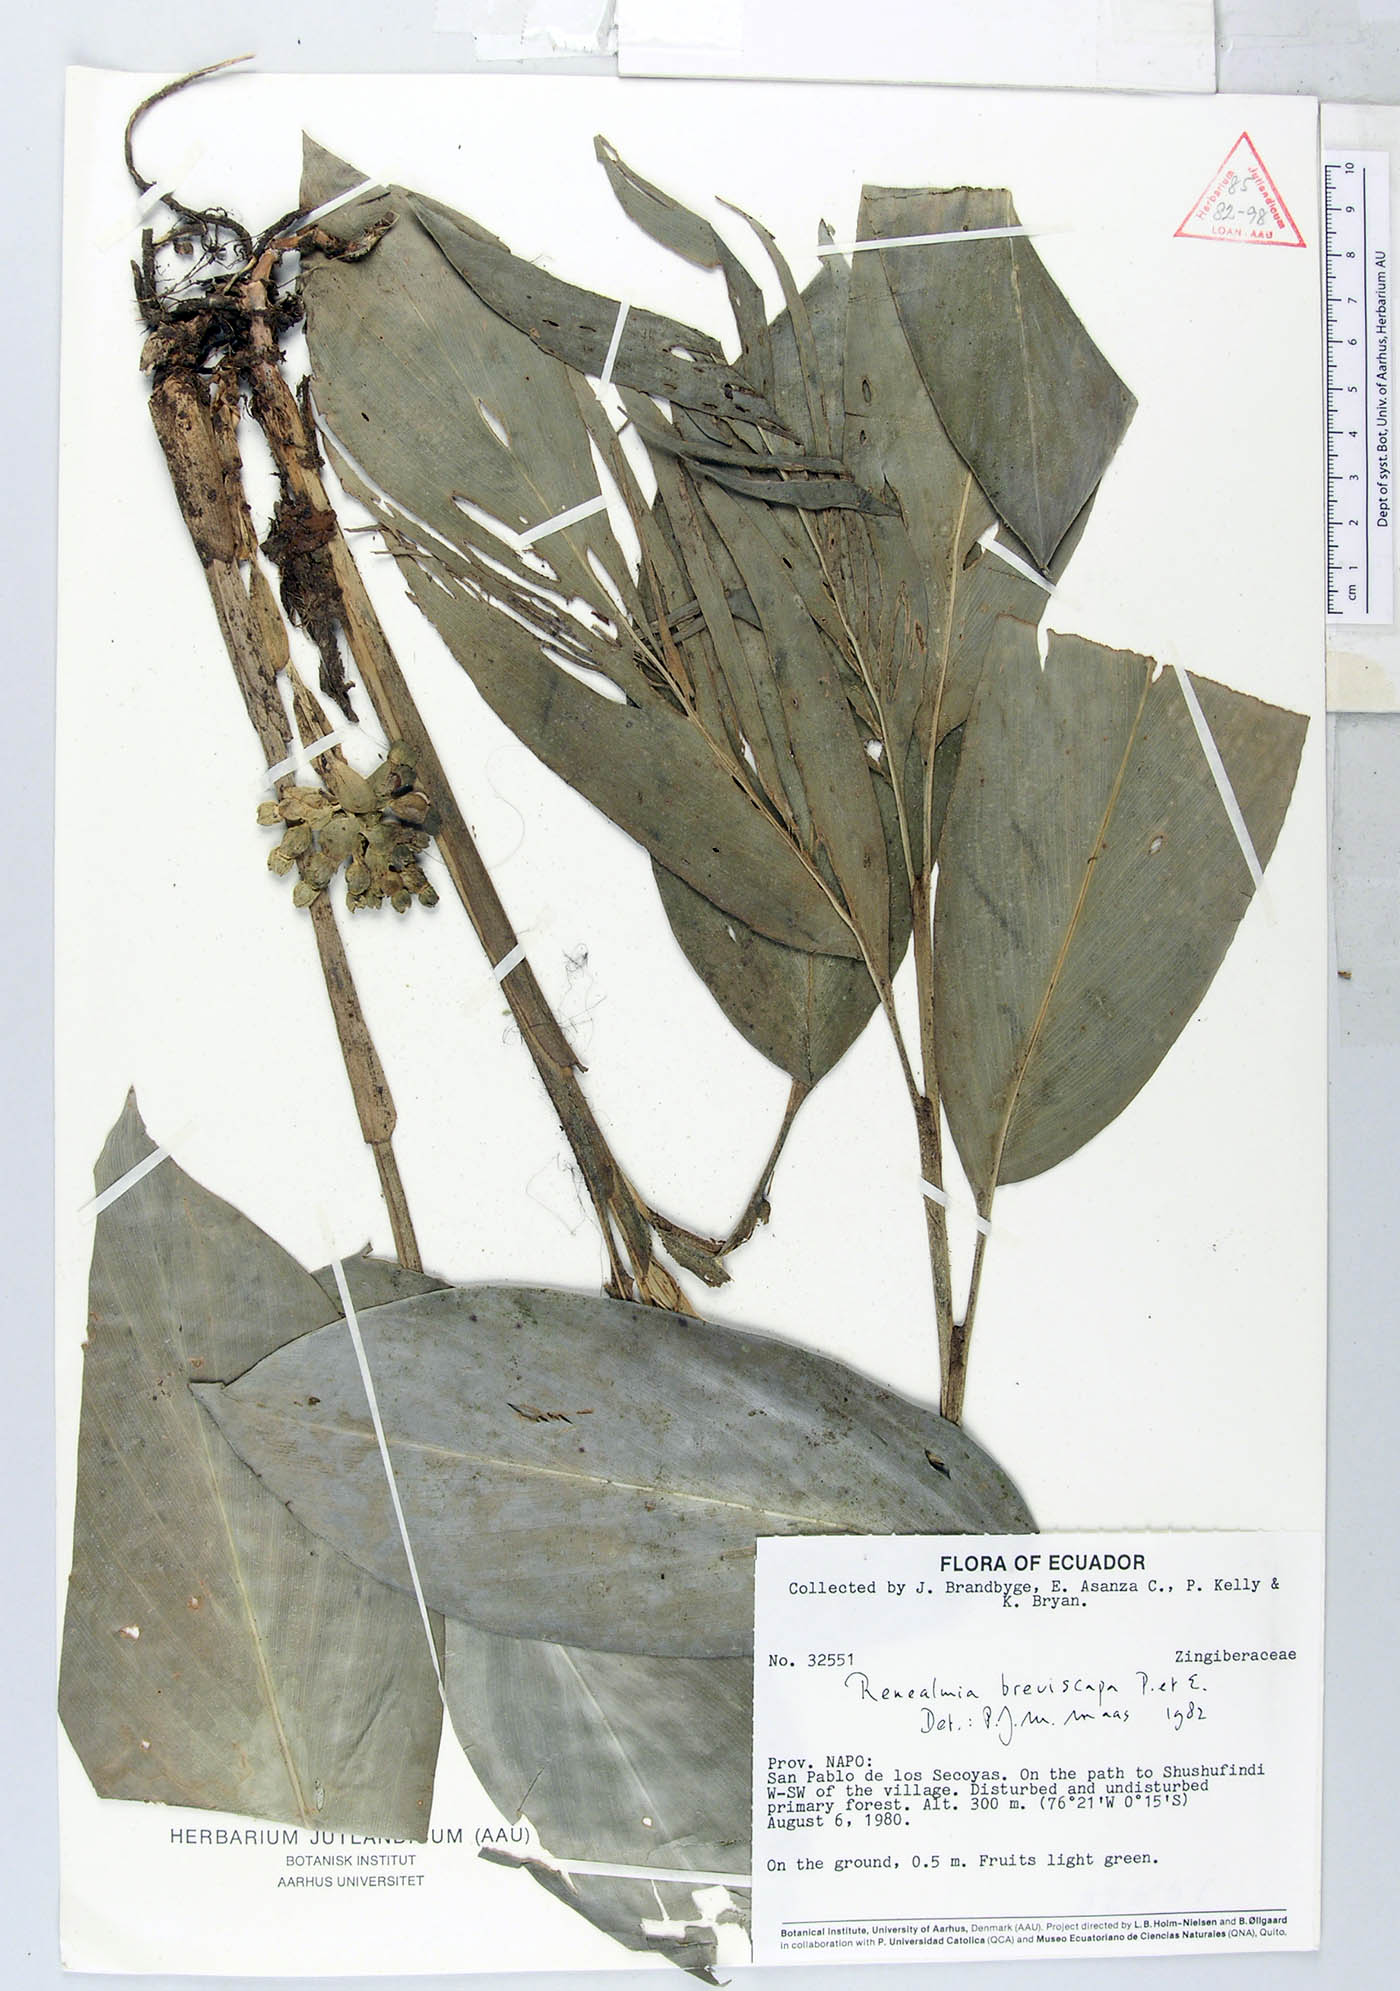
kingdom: Plantae
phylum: Tracheophyta
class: Liliopsida
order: Zingiberales
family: Zingiberaceae
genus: Renealmia
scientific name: Renealmia breviscapa
